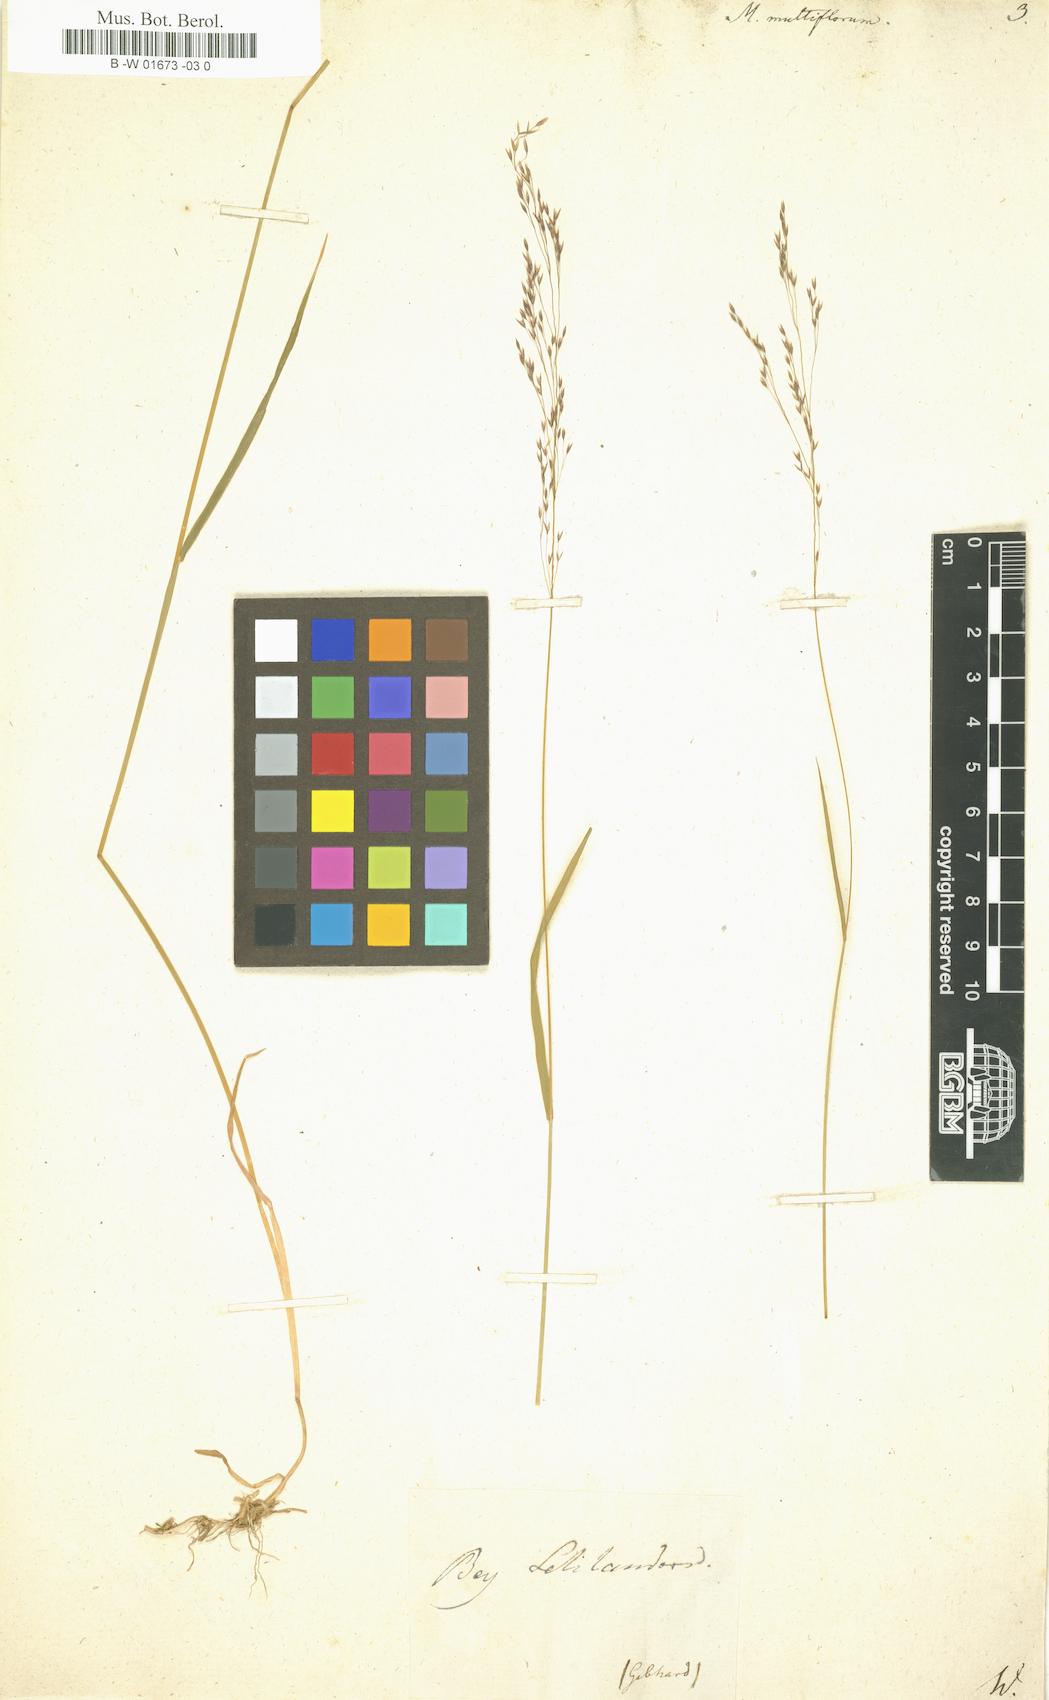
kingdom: Plantae
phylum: Tracheophyta
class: Liliopsida
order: Poales
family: Poaceae
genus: Oloptum
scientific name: Oloptum miliaceum
